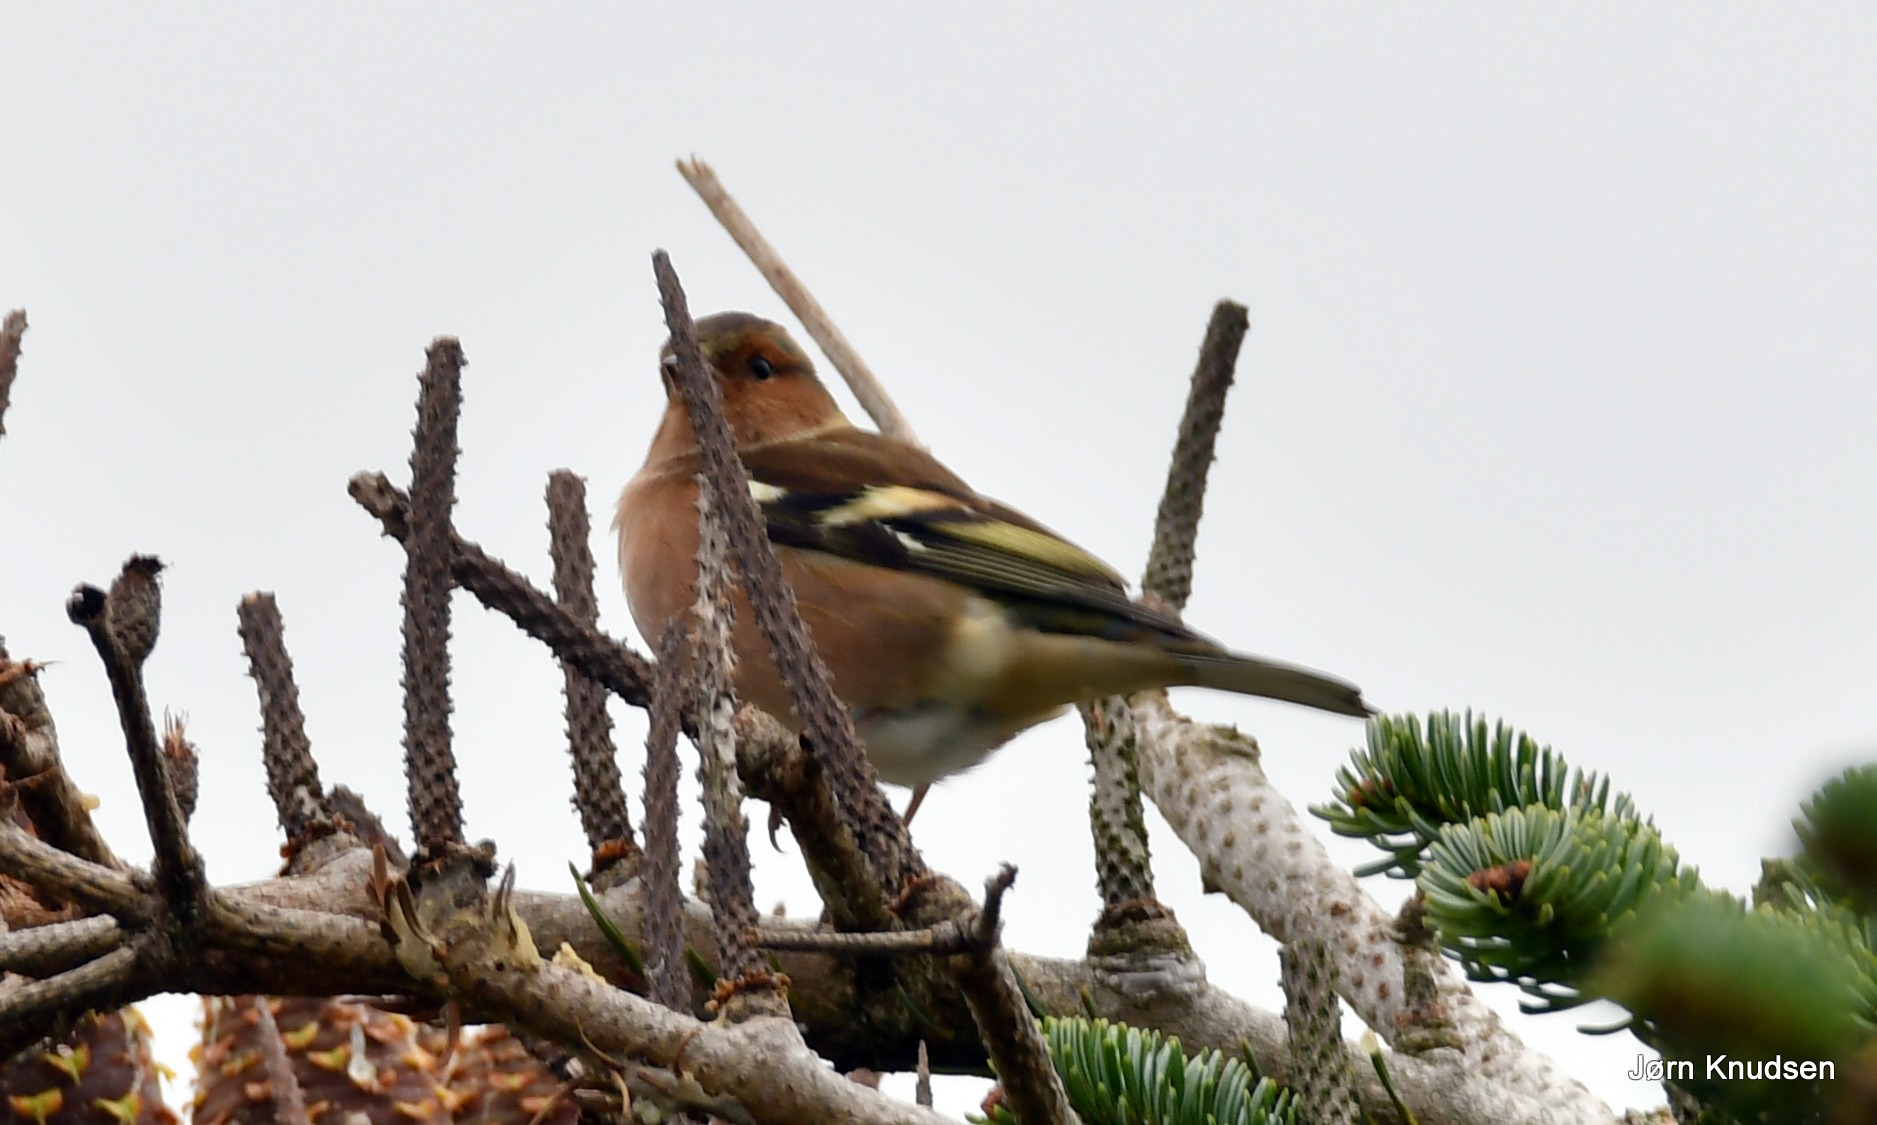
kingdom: Animalia
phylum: Chordata
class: Aves
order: Passeriformes
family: Fringillidae
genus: Fringilla
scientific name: Fringilla coelebs
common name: Bogfinke
